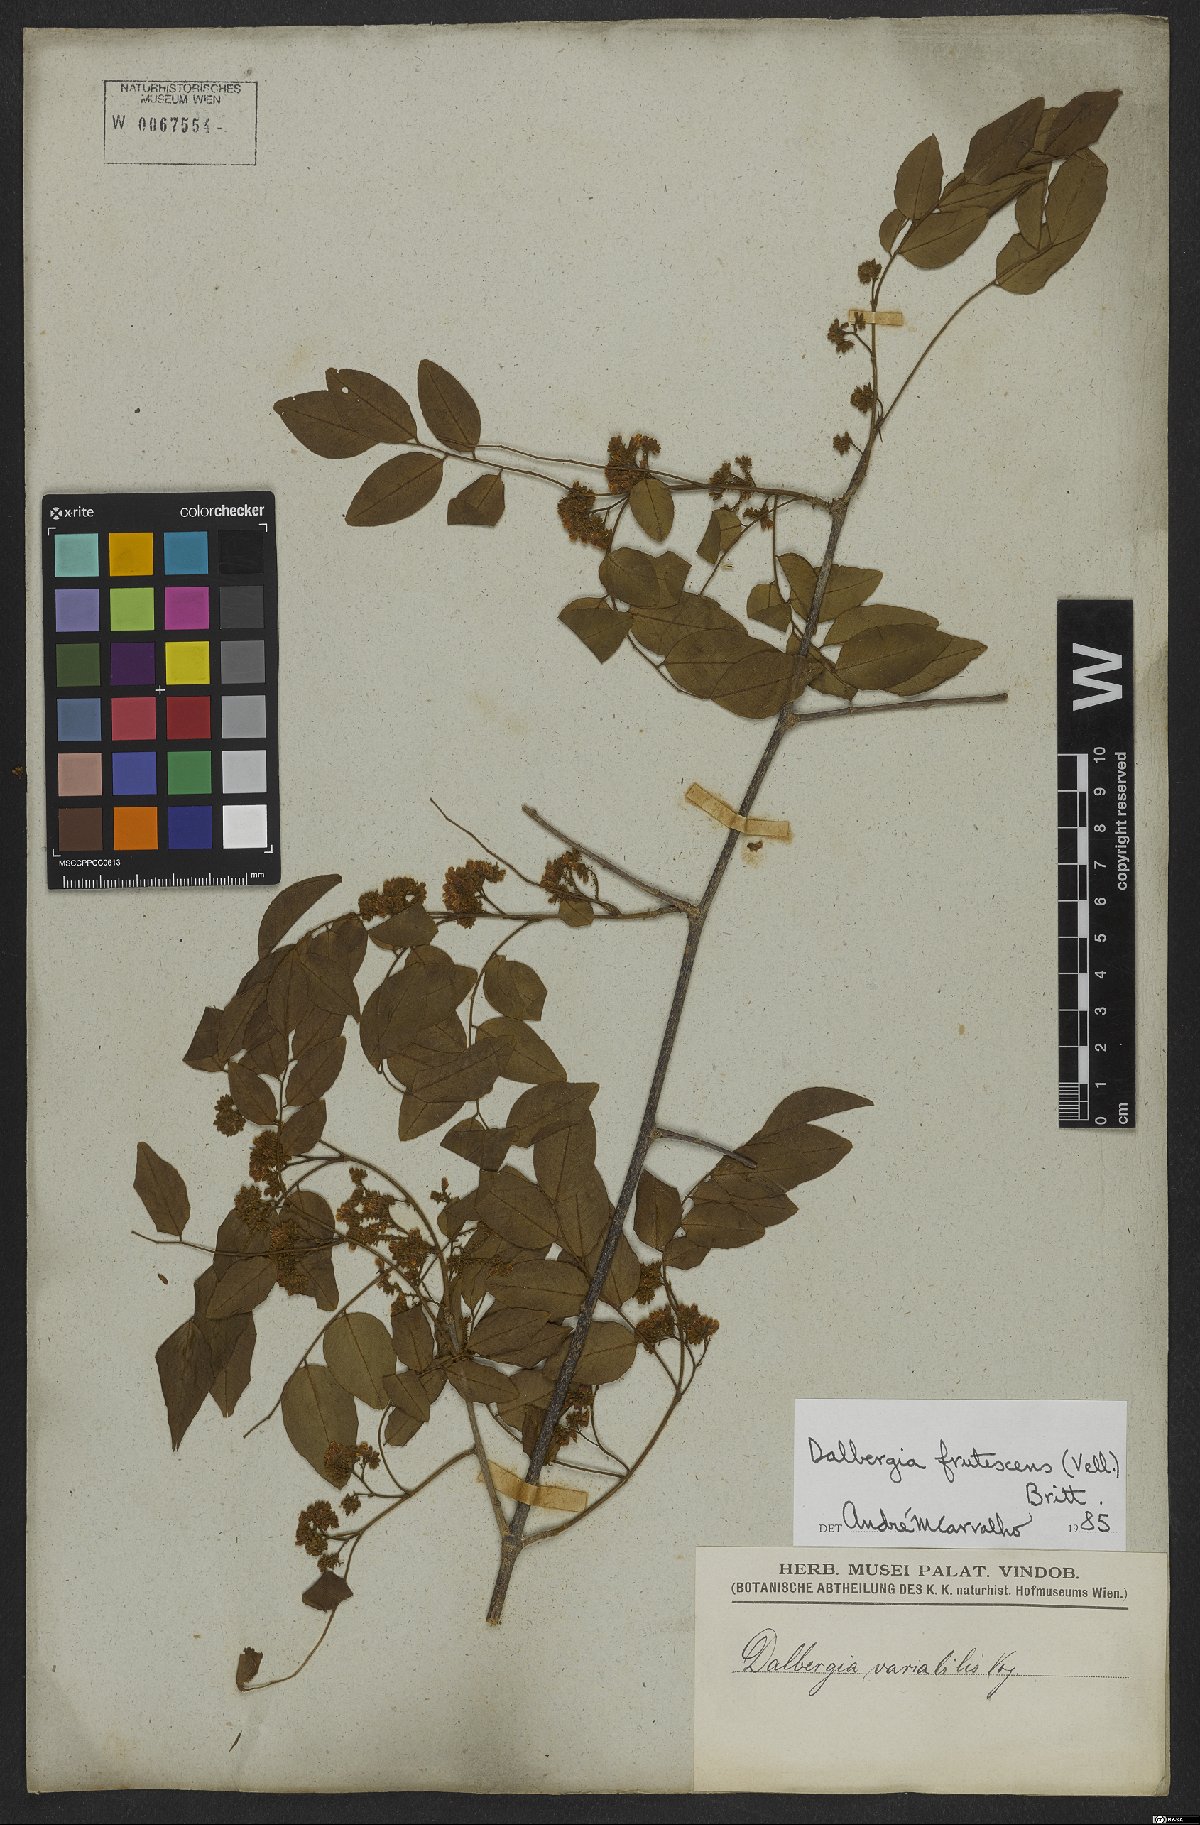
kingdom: Plantae
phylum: Tracheophyta
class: Magnoliopsida
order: Fabales
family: Fabaceae
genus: Dalbergia
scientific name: Dalbergia frutescens
